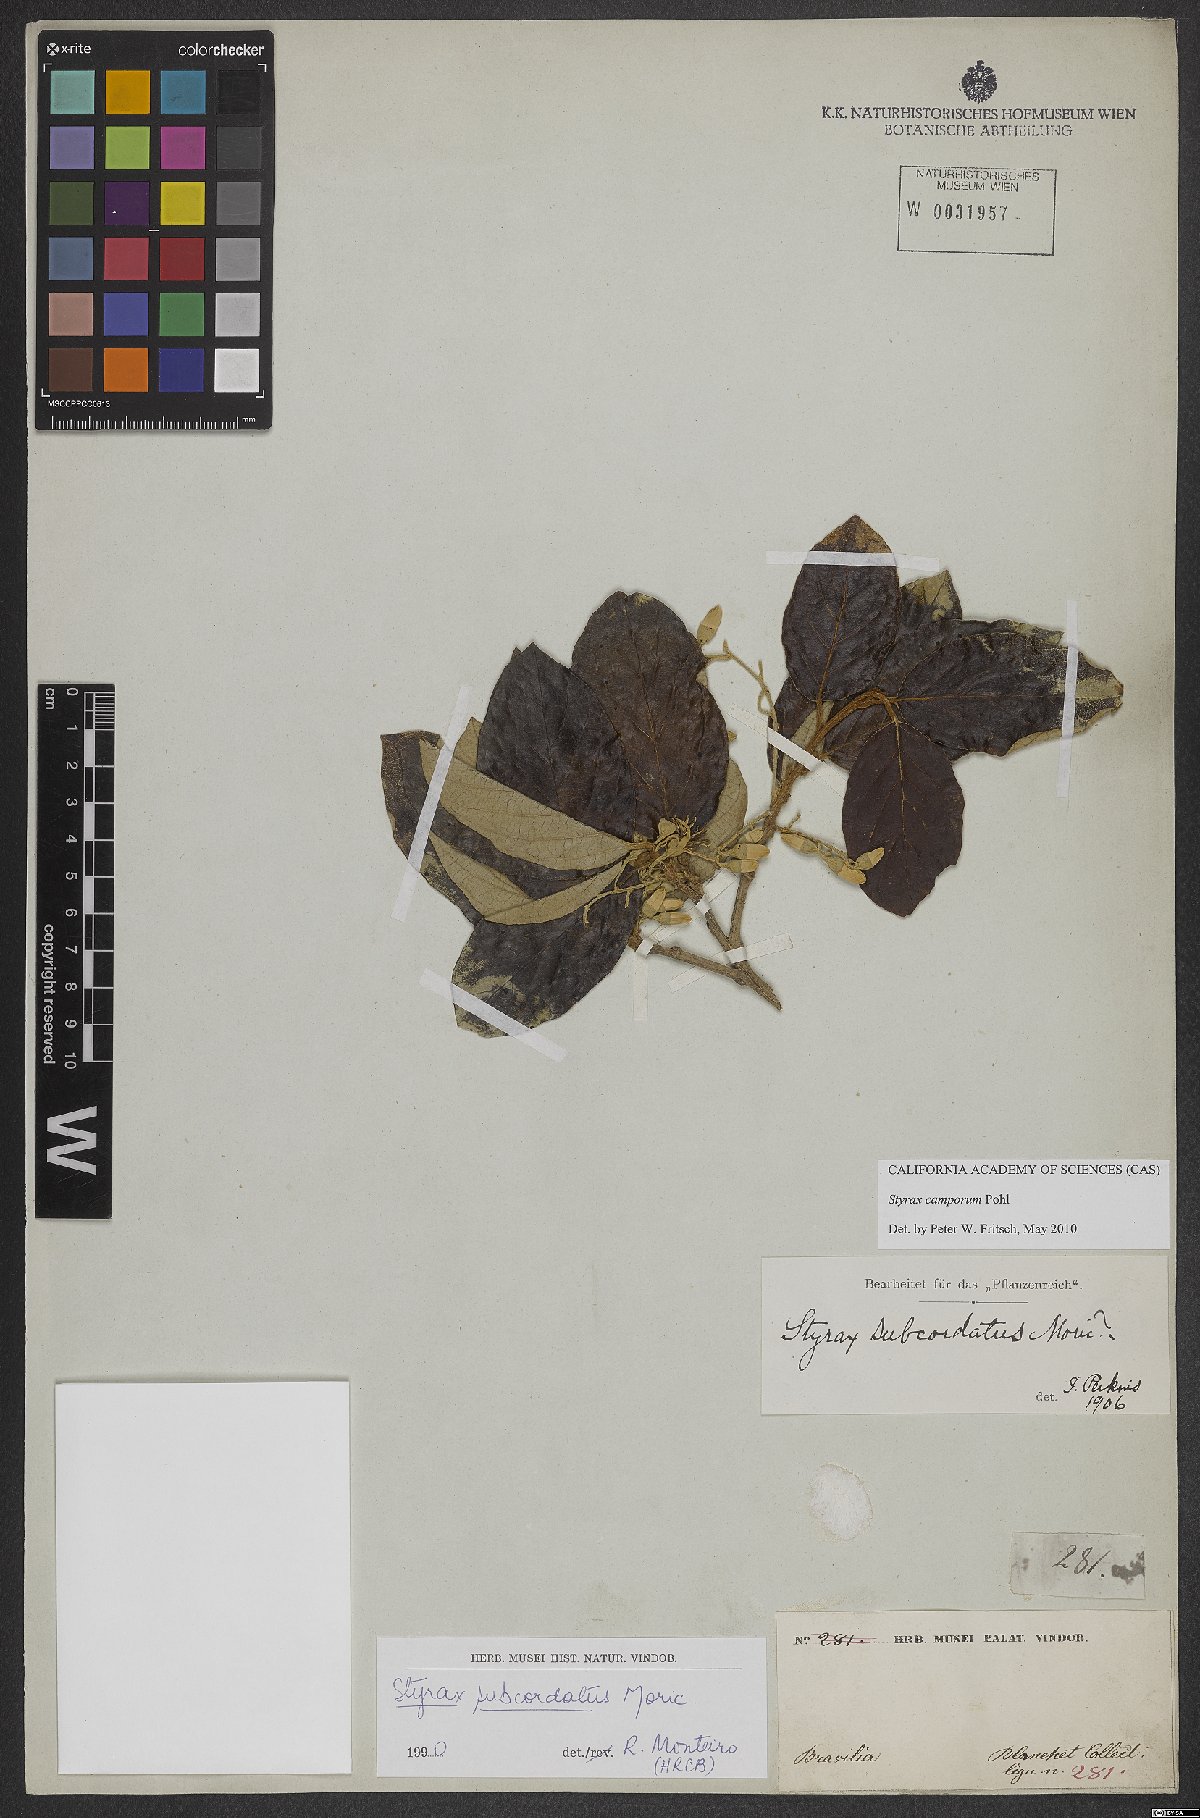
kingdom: Plantae
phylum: Tracheophyta
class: Magnoliopsida
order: Ericales
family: Styracaceae
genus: Styrax
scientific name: Styrax camporum
